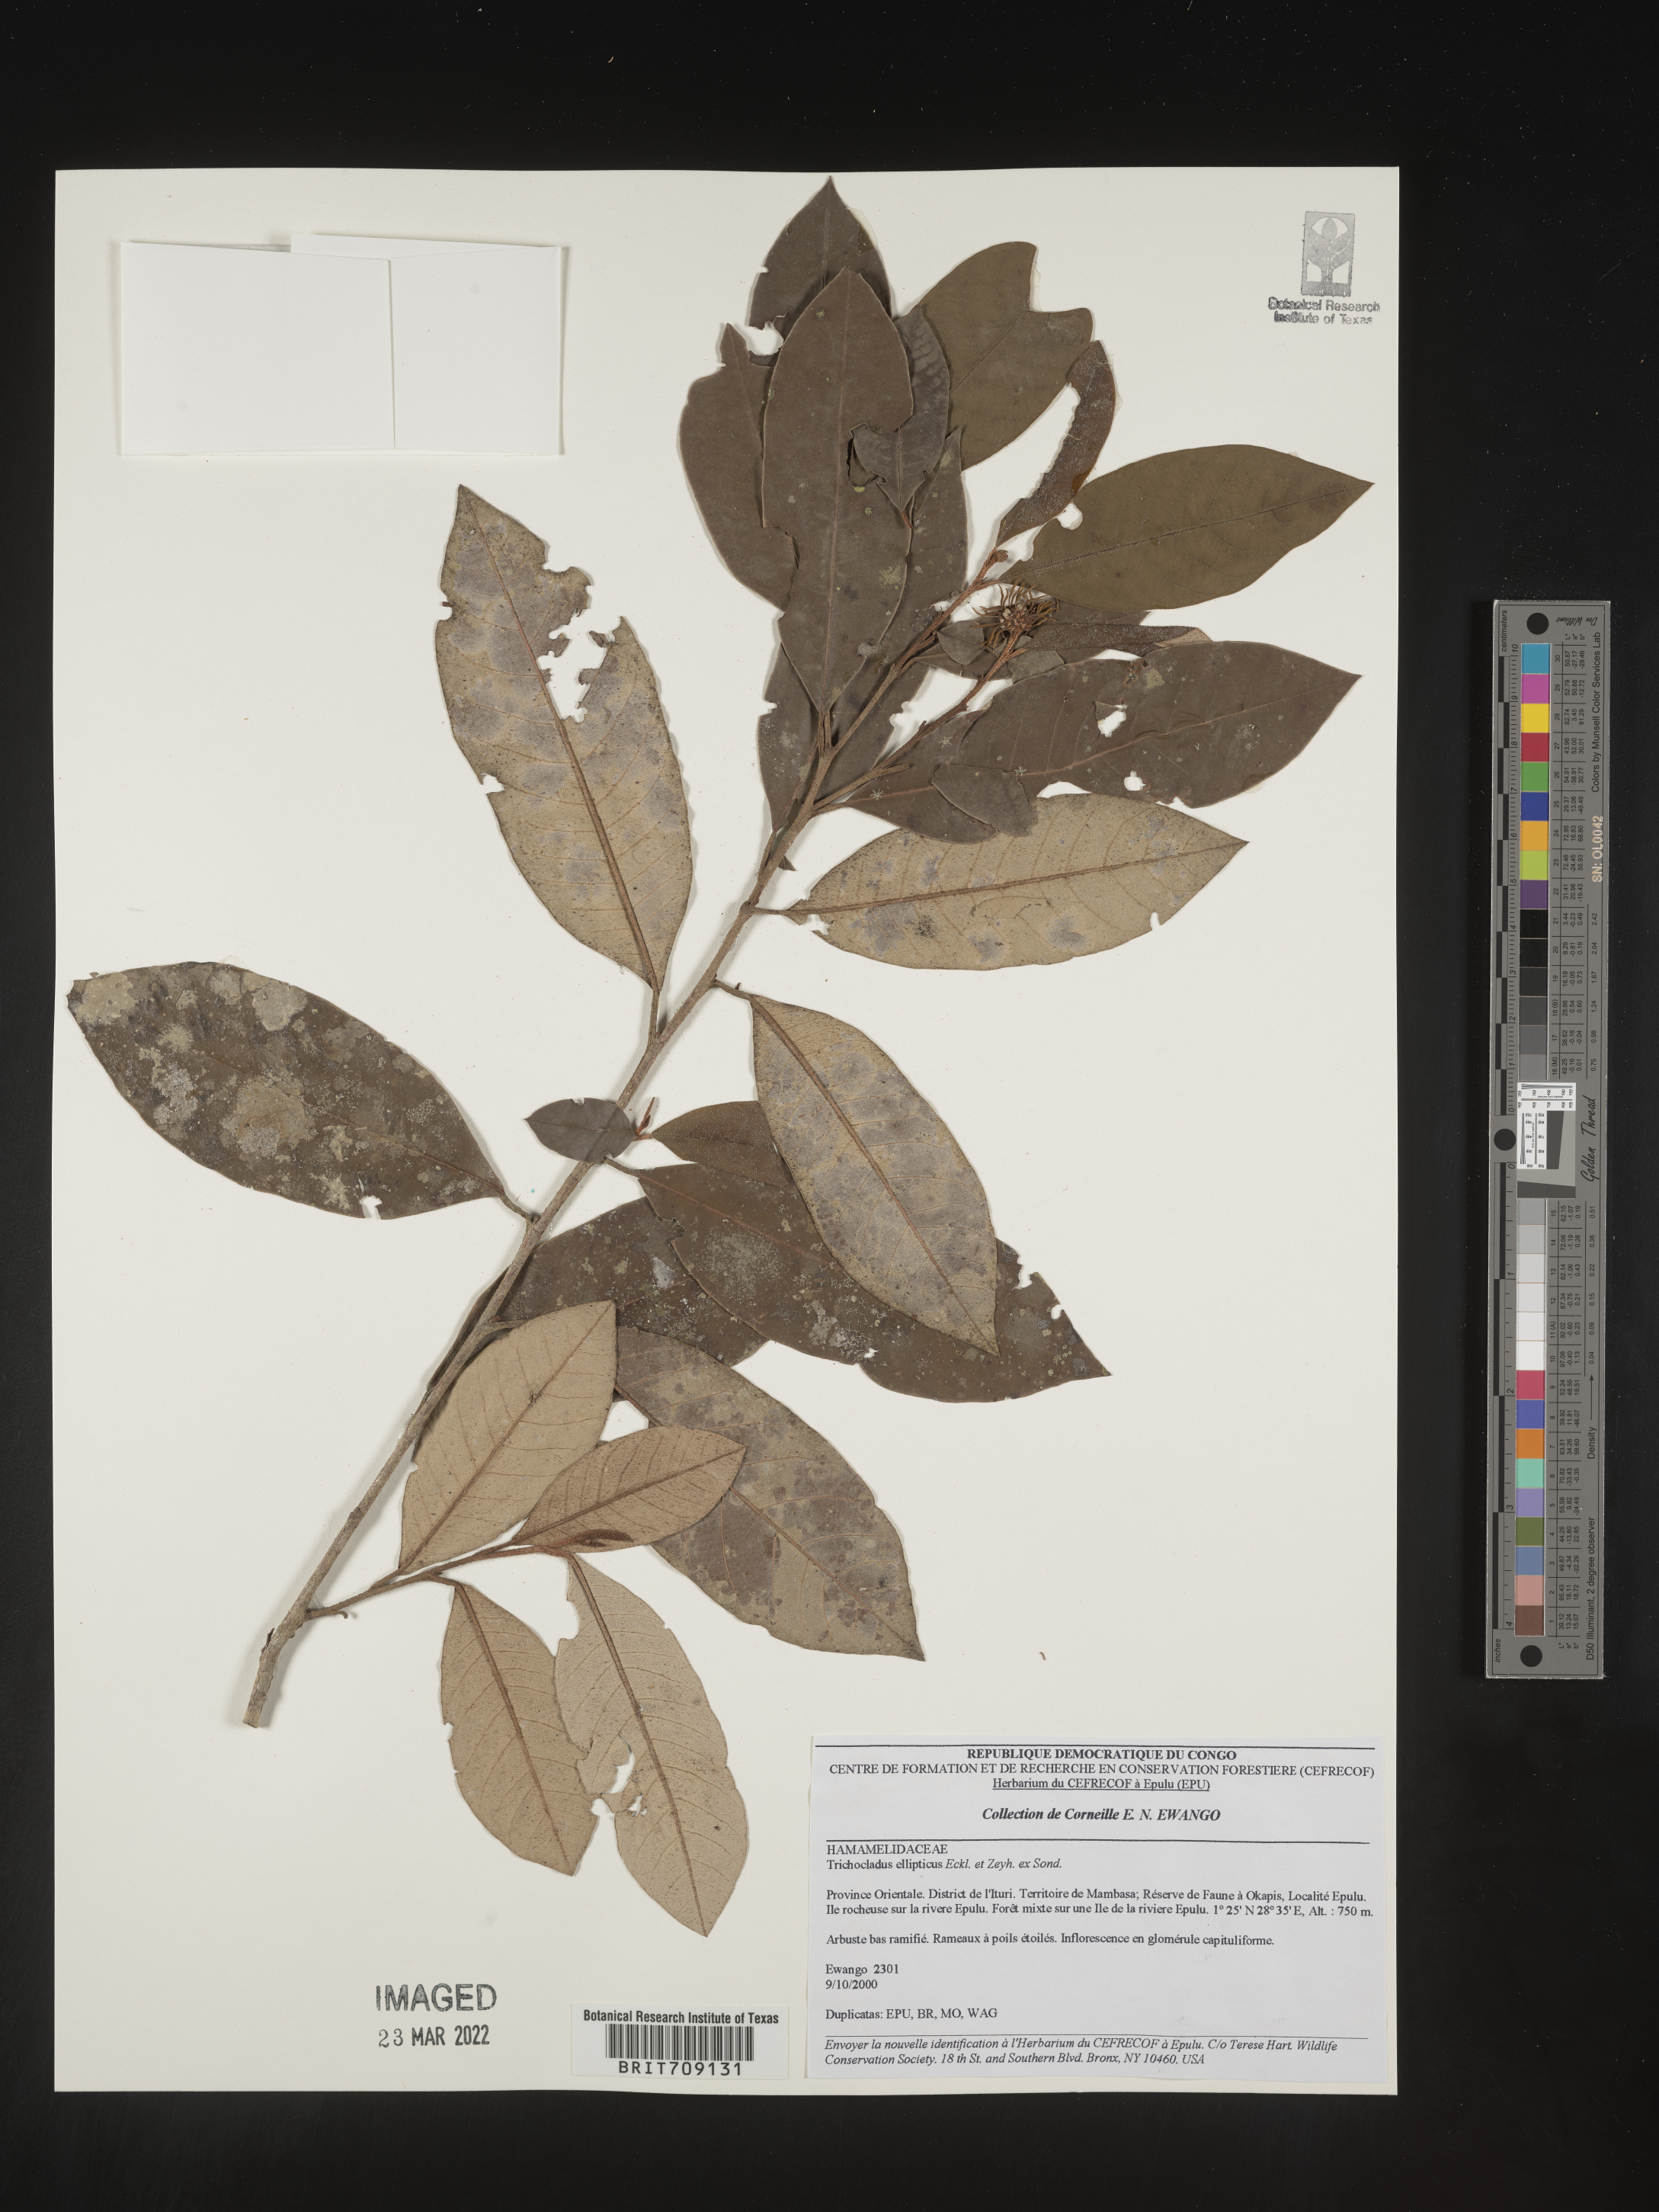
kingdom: Plantae
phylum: Tracheophyta
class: Magnoliopsida
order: Saxifragales
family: Hamamelidaceae
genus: Trichocladus
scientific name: Trichocladus
